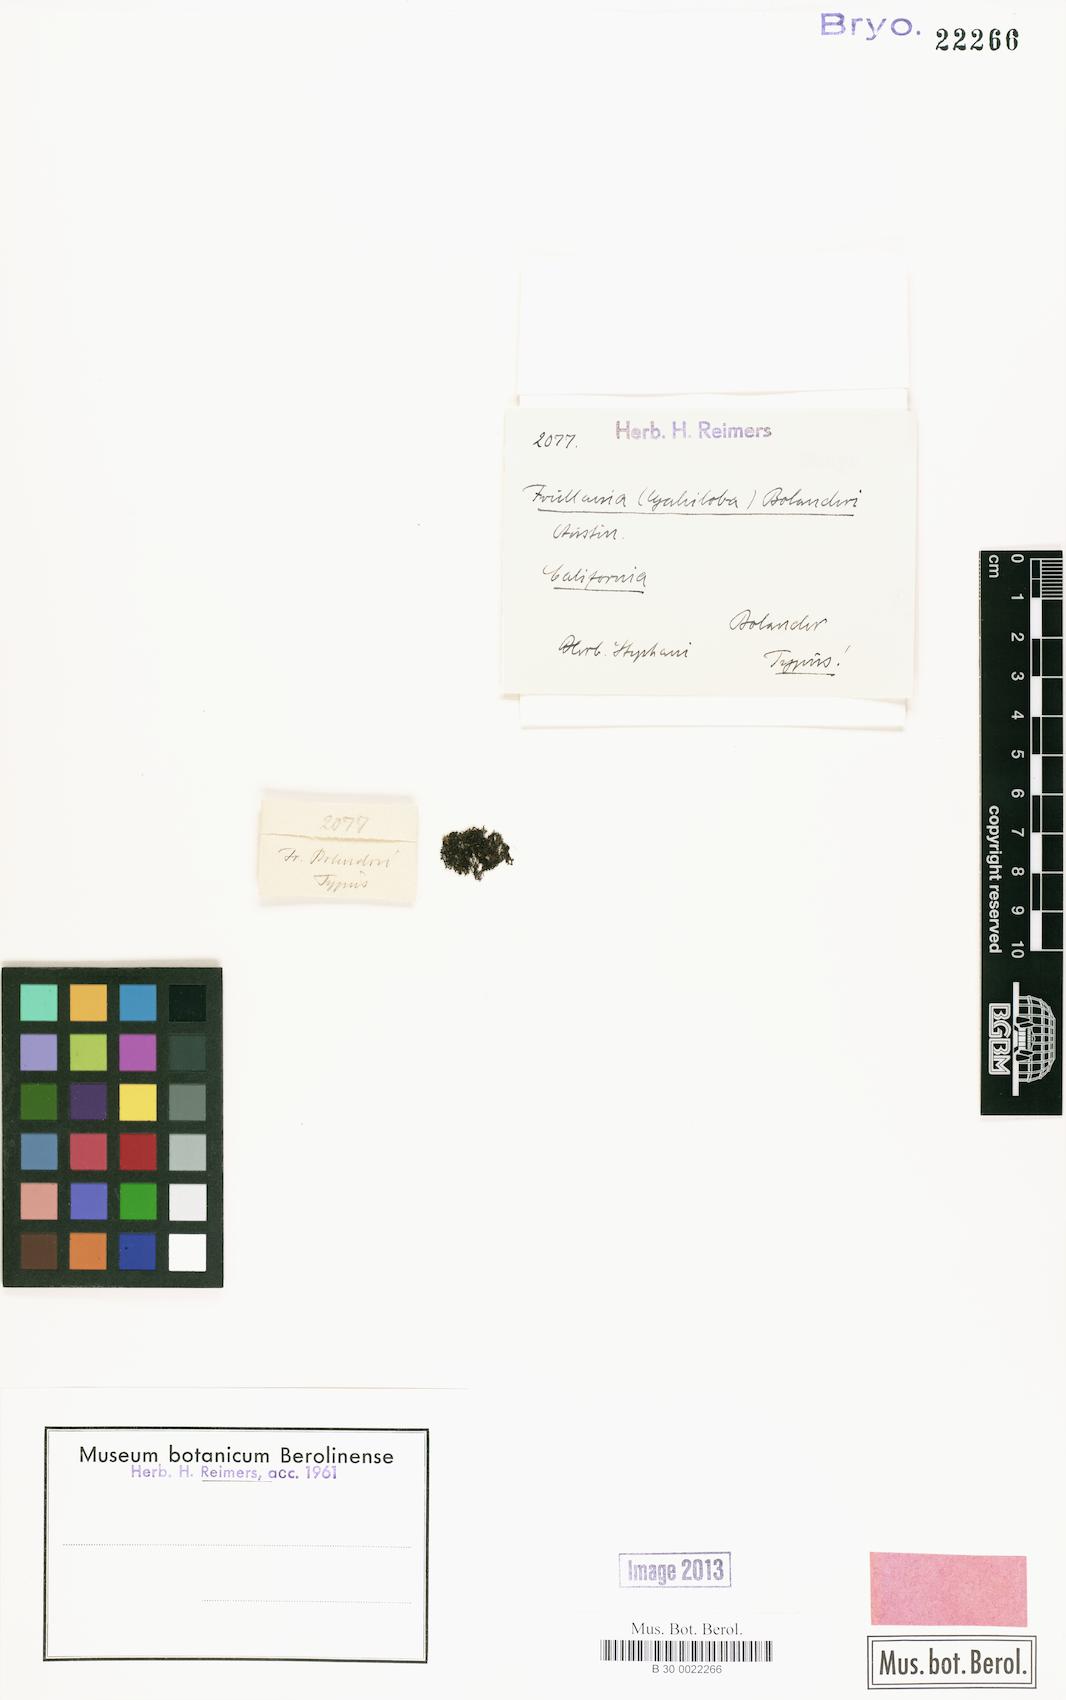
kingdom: Plantae
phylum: Marchantiophyta
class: Jungermanniopsida
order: Porellales
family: Frullaniaceae
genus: Frullania
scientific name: Frullania bolanderi
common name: Bolander s scalewort
